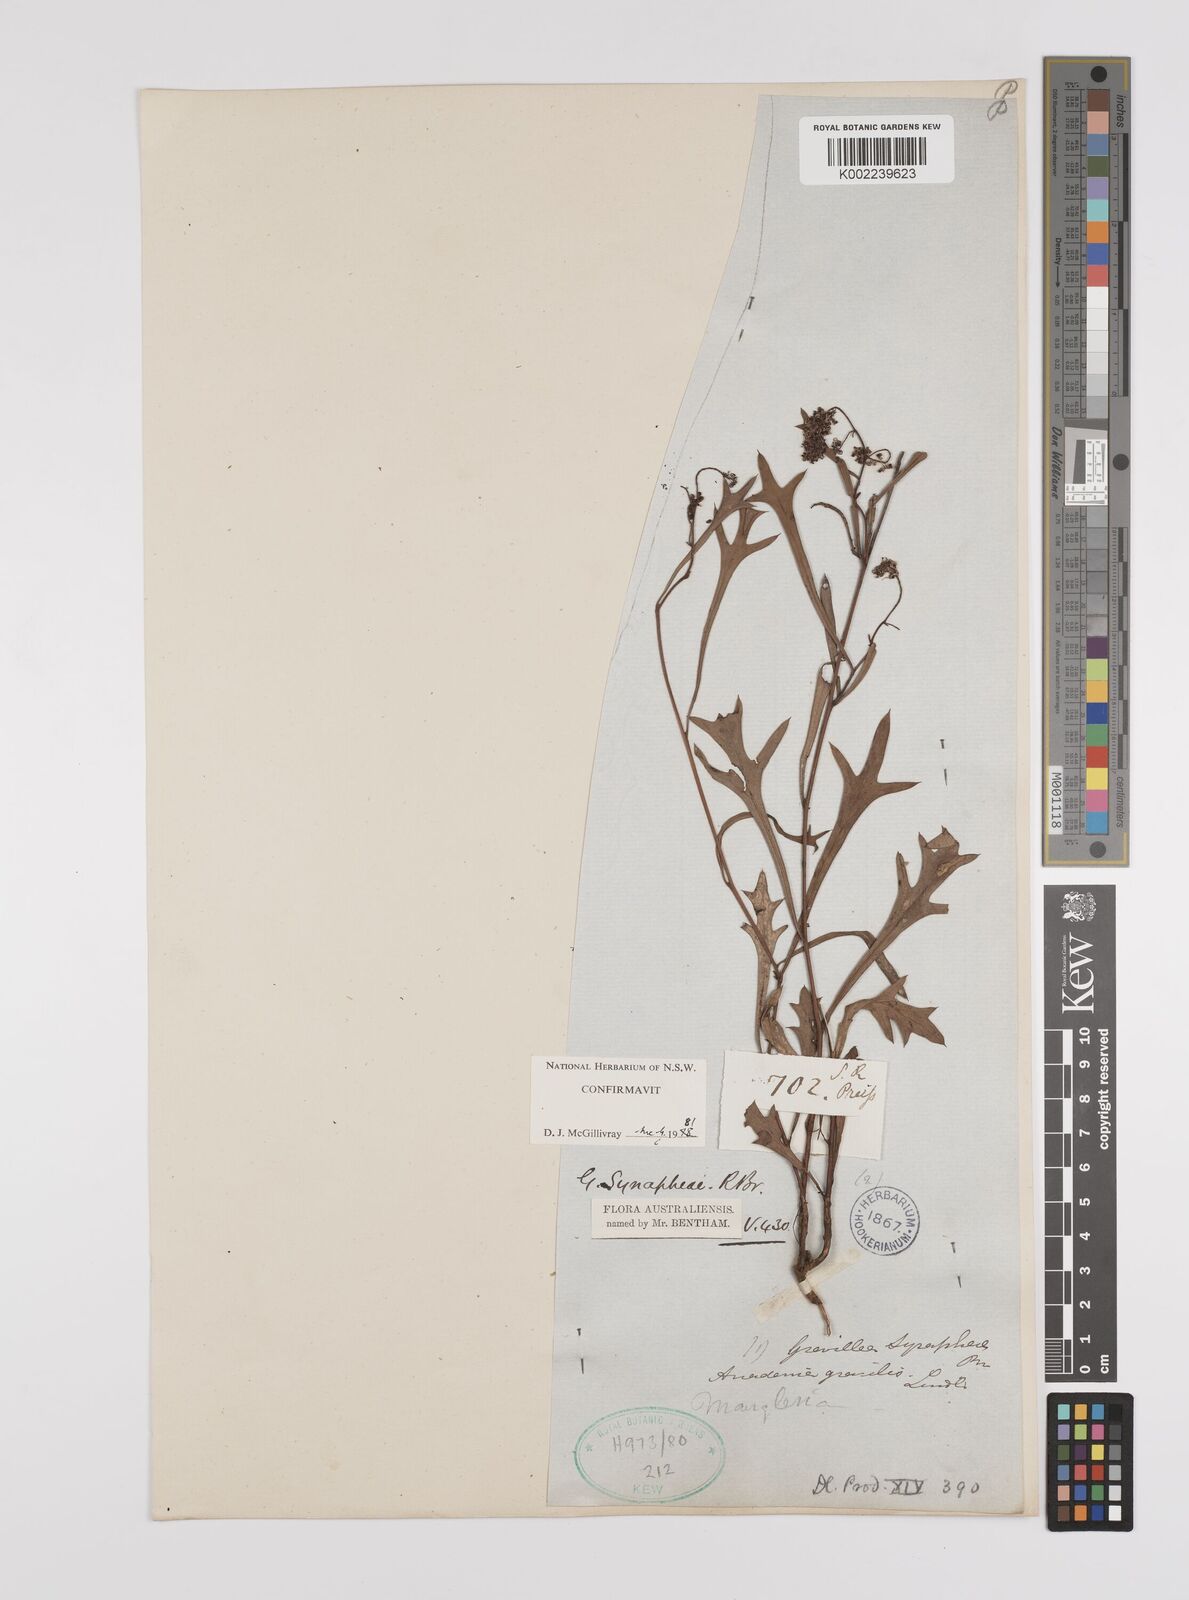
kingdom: Plantae
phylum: Tracheophyta
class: Magnoliopsida
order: Proteales
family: Proteaceae
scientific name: Proteaceae
